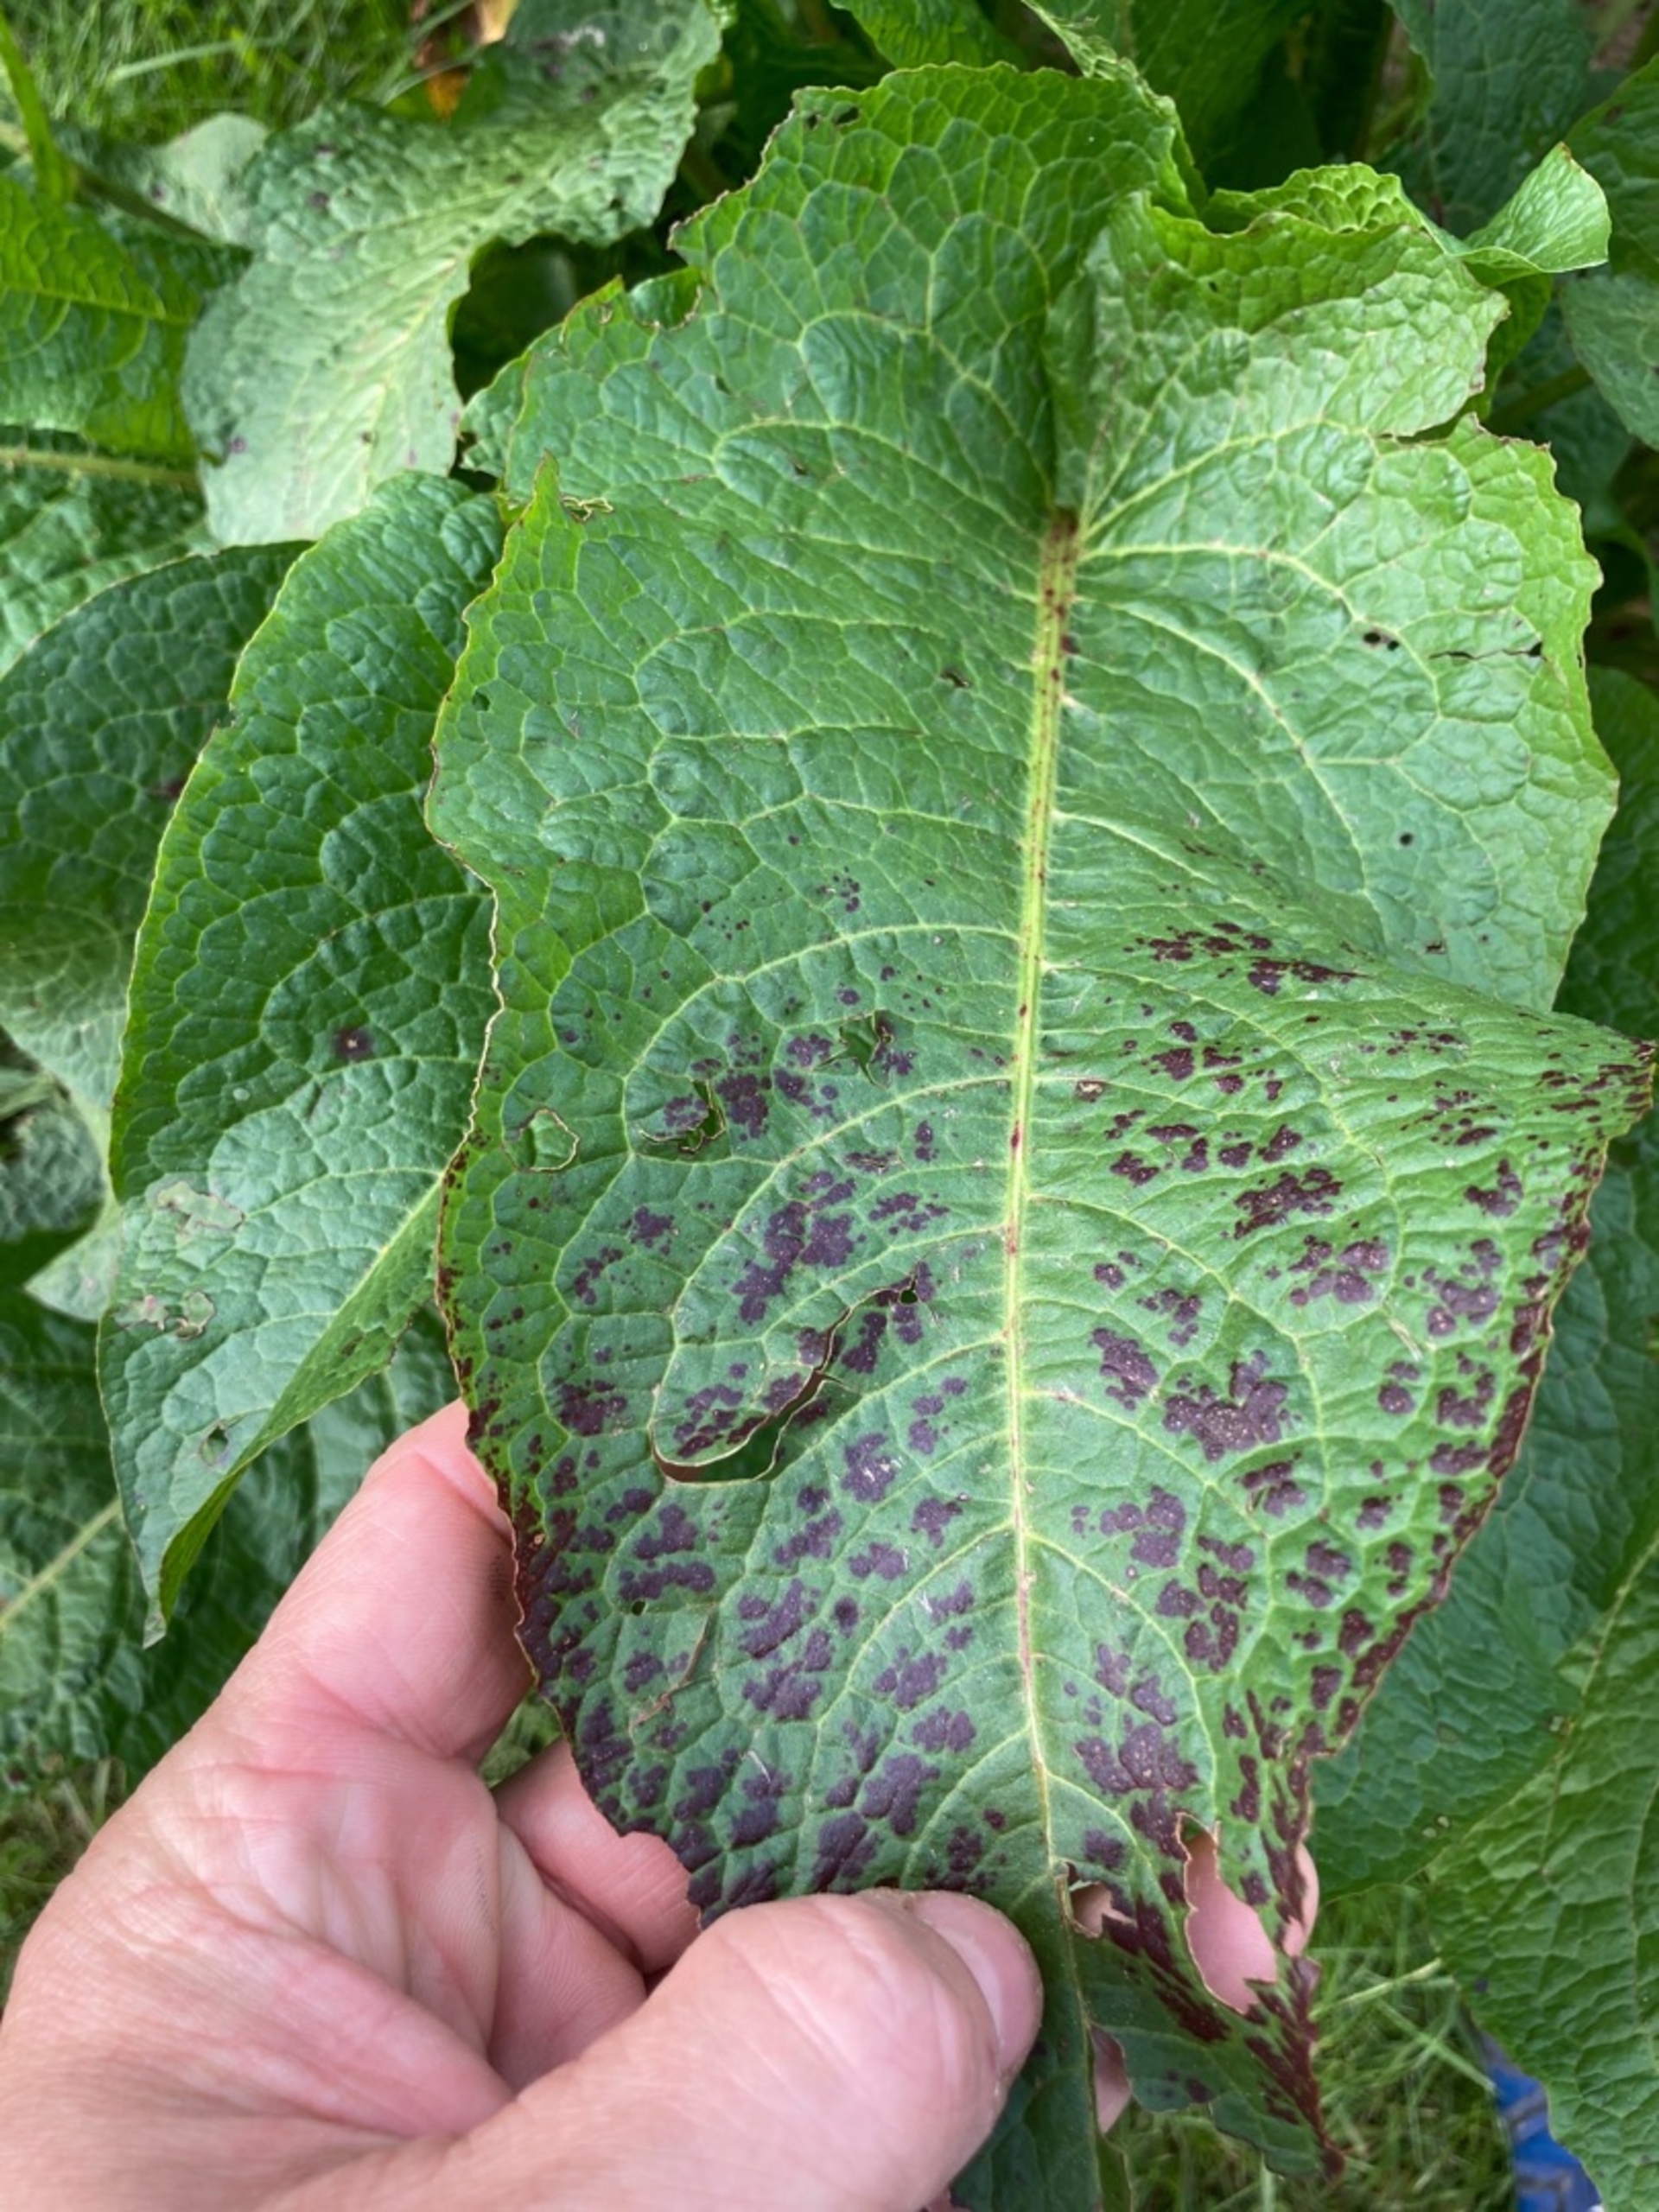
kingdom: Plantae
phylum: Tracheophyta
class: Magnoliopsida
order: Caryophyllales
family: Polygonaceae
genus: Rumex
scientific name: Rumex obtusifolius
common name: Butbladet skræppe
